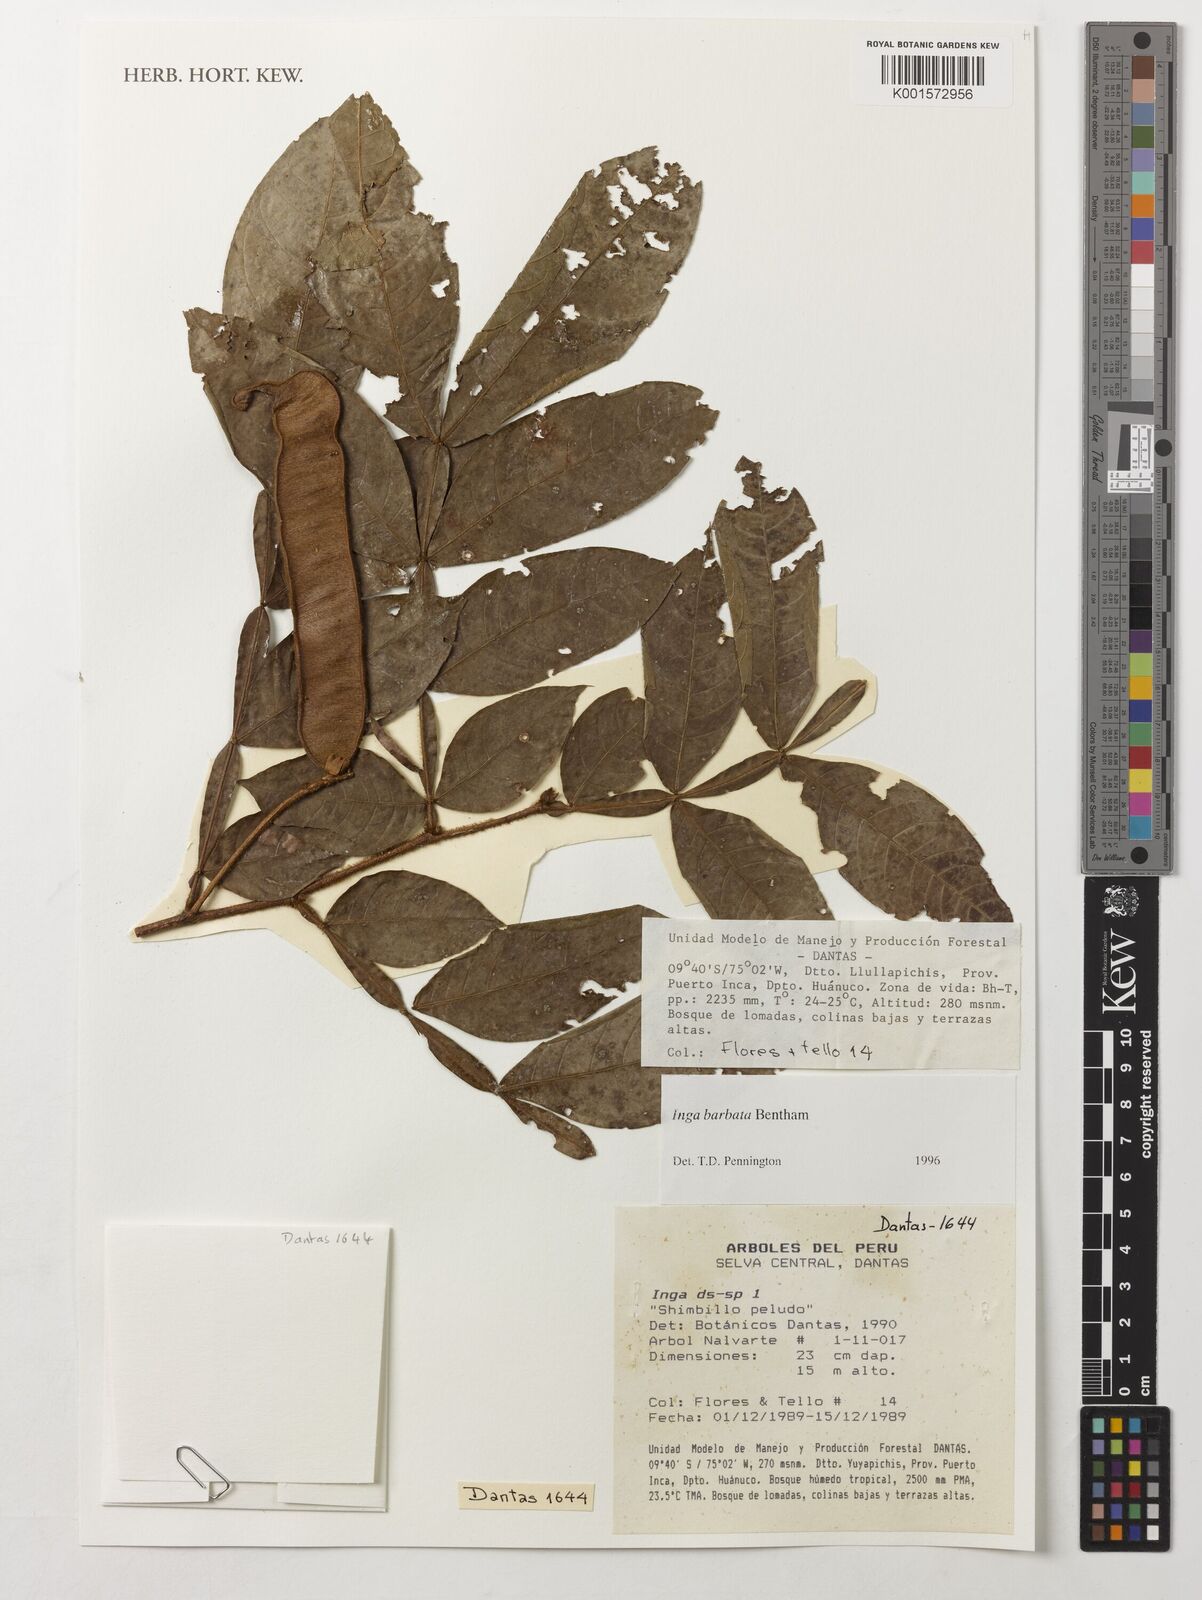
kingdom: Plantae
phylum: Tracheophyta
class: Magnoliopsida
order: Fabales
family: Fabaceae
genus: Inga
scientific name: Inga barbata
